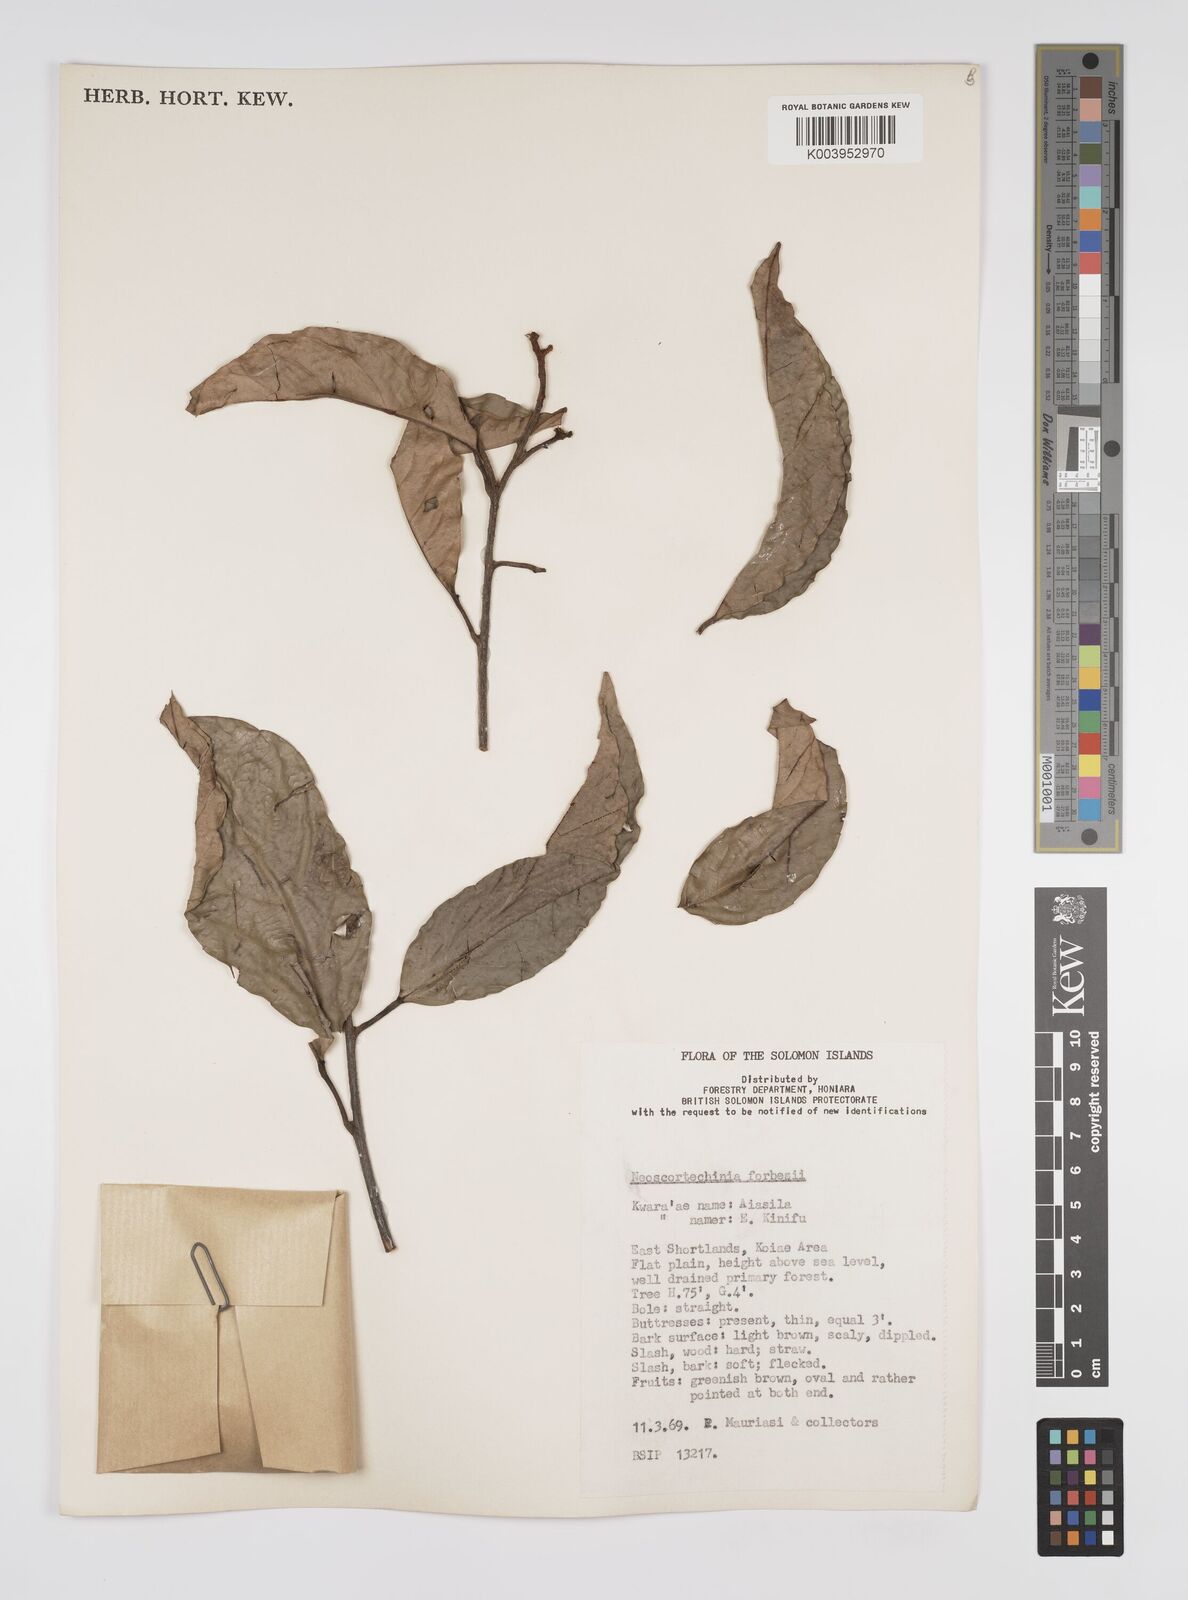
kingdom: Plantae
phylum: Tracheophyta
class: Magnoliopsida
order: Malpighiales
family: Euphorbiaceae
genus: Neoscortechinia
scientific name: Neoscortechinia forbesii
